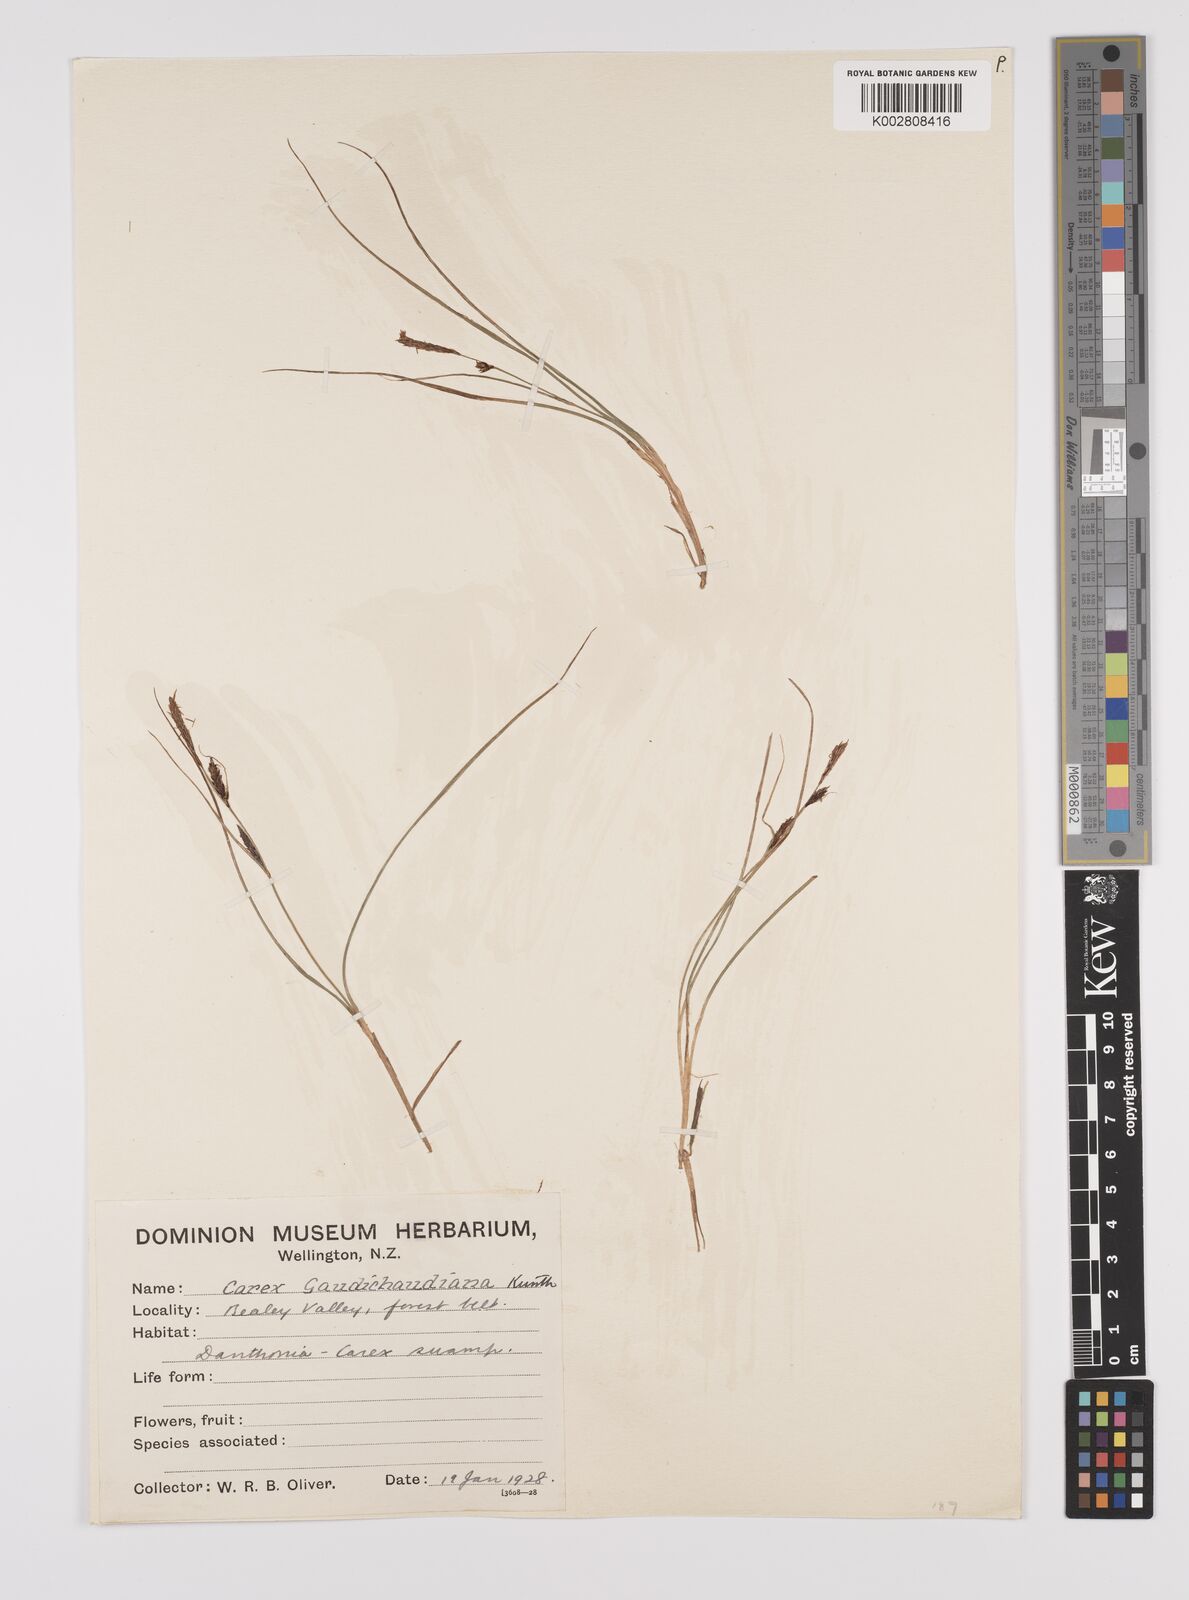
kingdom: Plantae
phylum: Tracheophyta
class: Liliopsida
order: Poales
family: Cyperaceae
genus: Carex
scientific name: Carex gaudichaudiana
